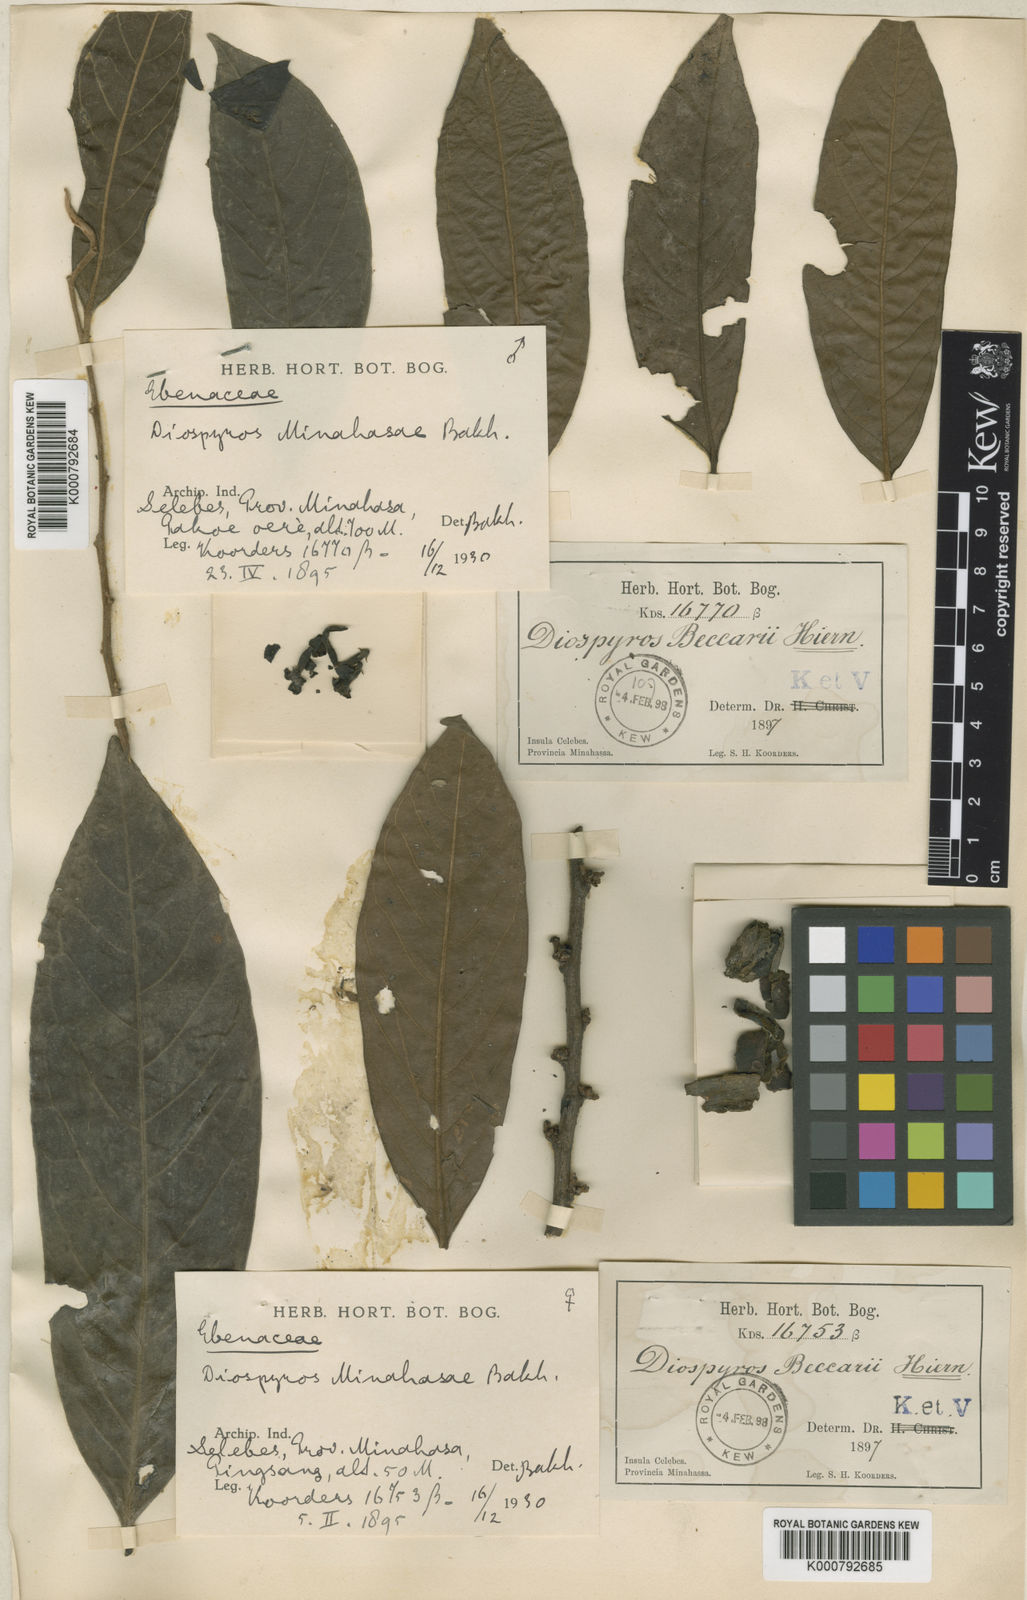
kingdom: Plantae
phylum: Tracheophyta
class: Magnoliopsida
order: Ericales
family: Ebenaceae
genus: Diospyros
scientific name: Diospyros minahassae
